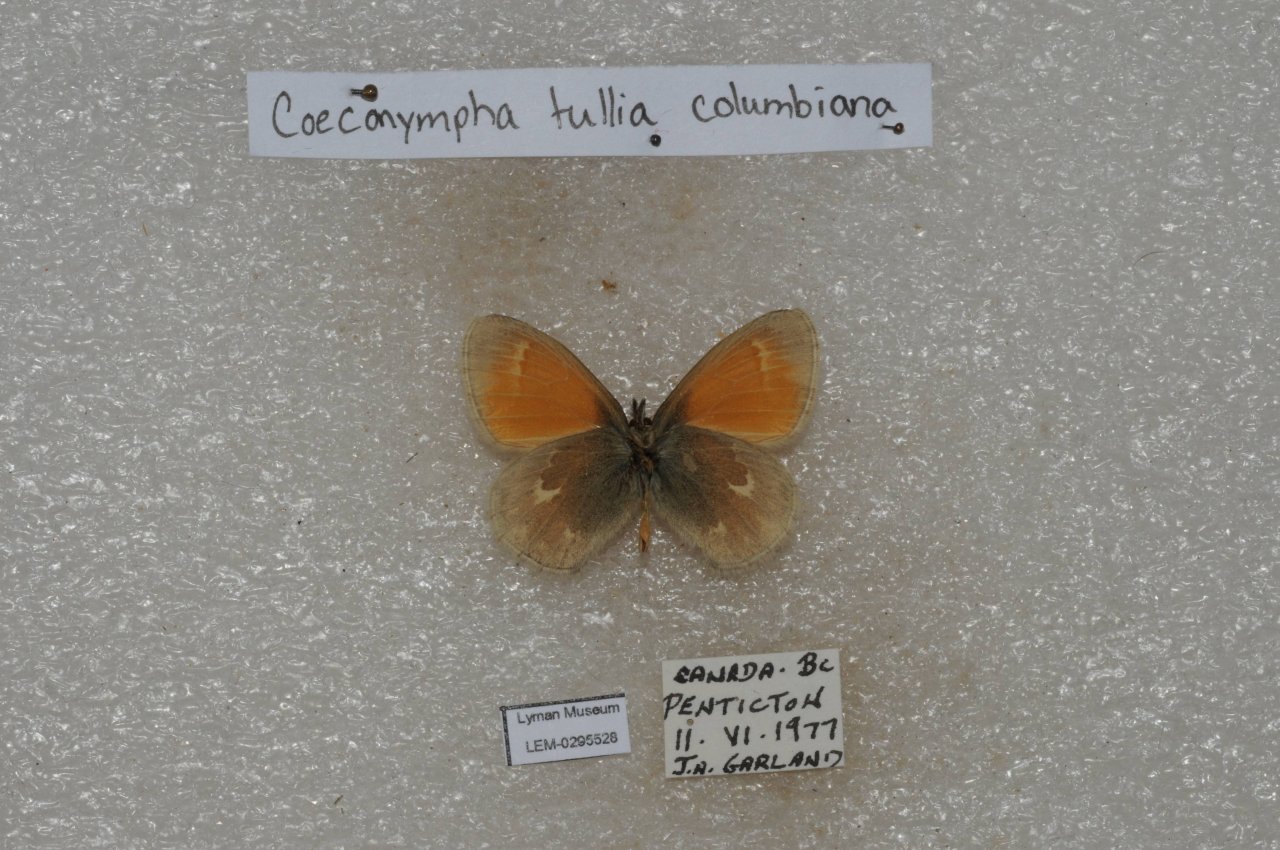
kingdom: Animalia
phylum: Arthropoda
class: Insecta
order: Lepidoptera
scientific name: Lepidoptera
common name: Butterflies
